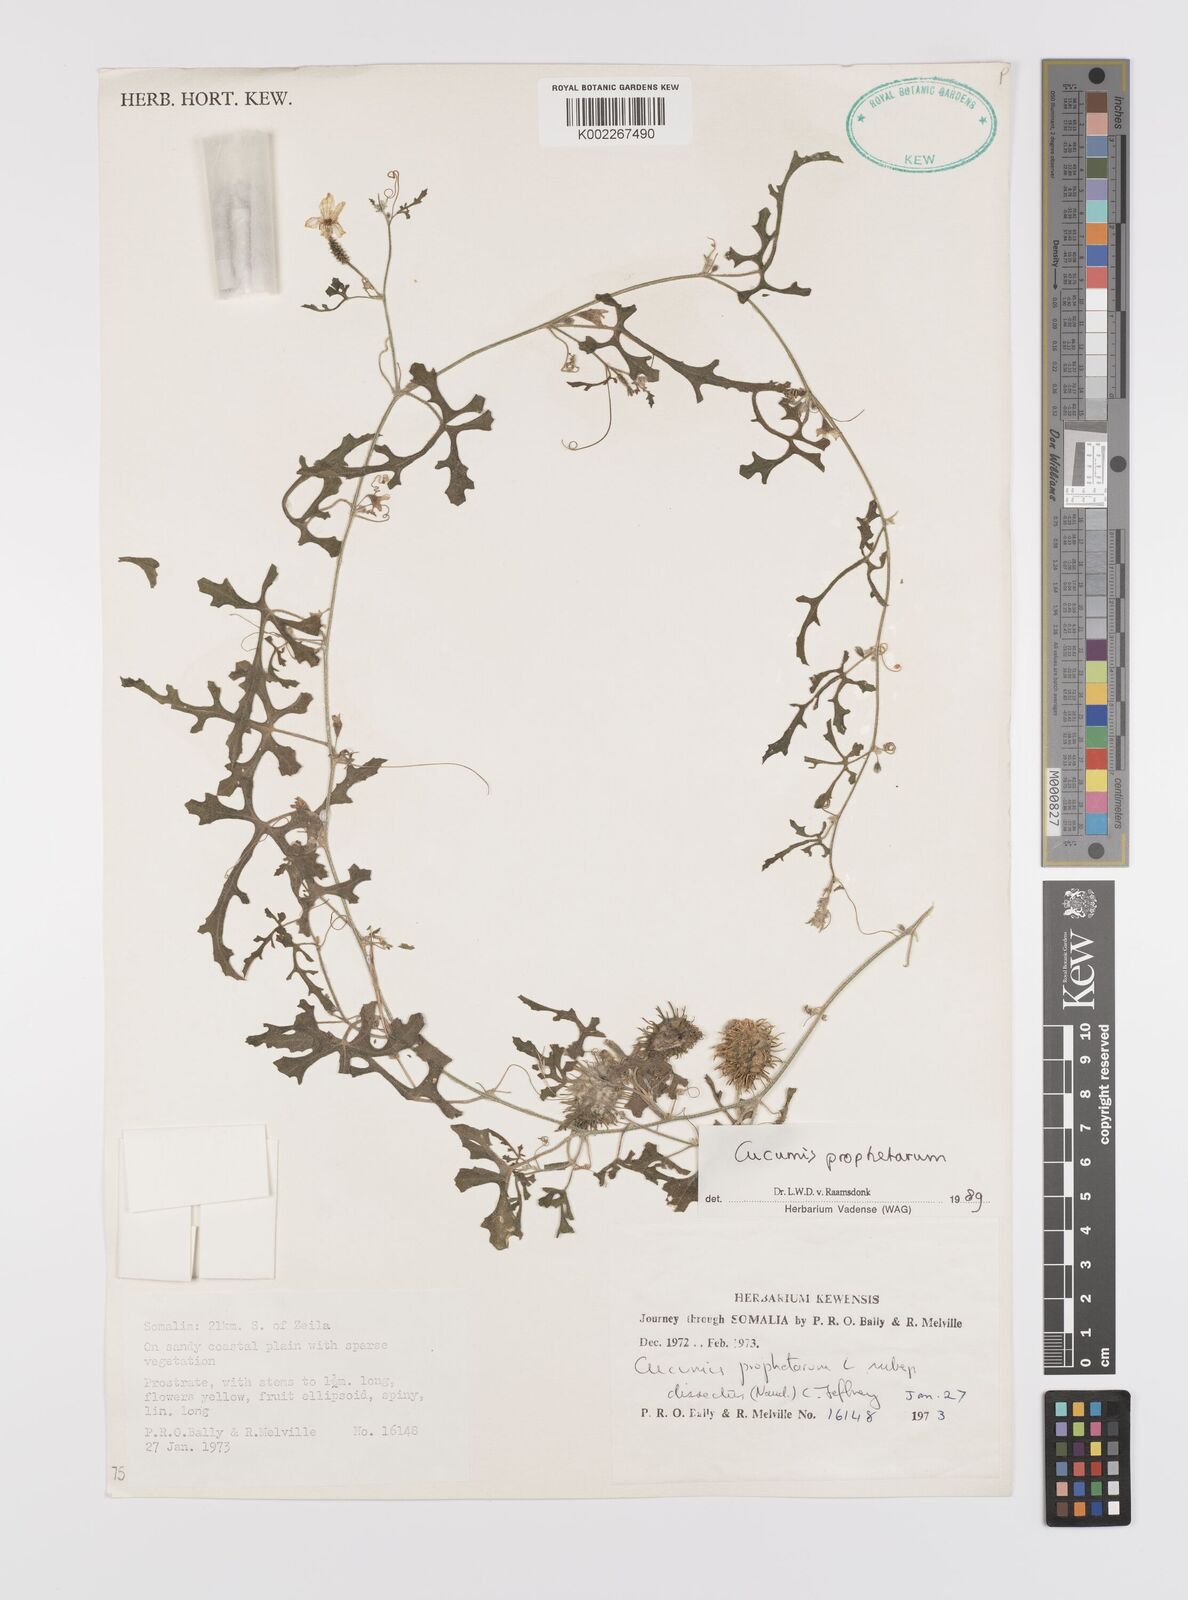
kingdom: Plantae
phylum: Tracheophyta
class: Magnoliopsida
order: Cucurbitales
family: Cucurbitaceae
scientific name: Cucurbitaceae
